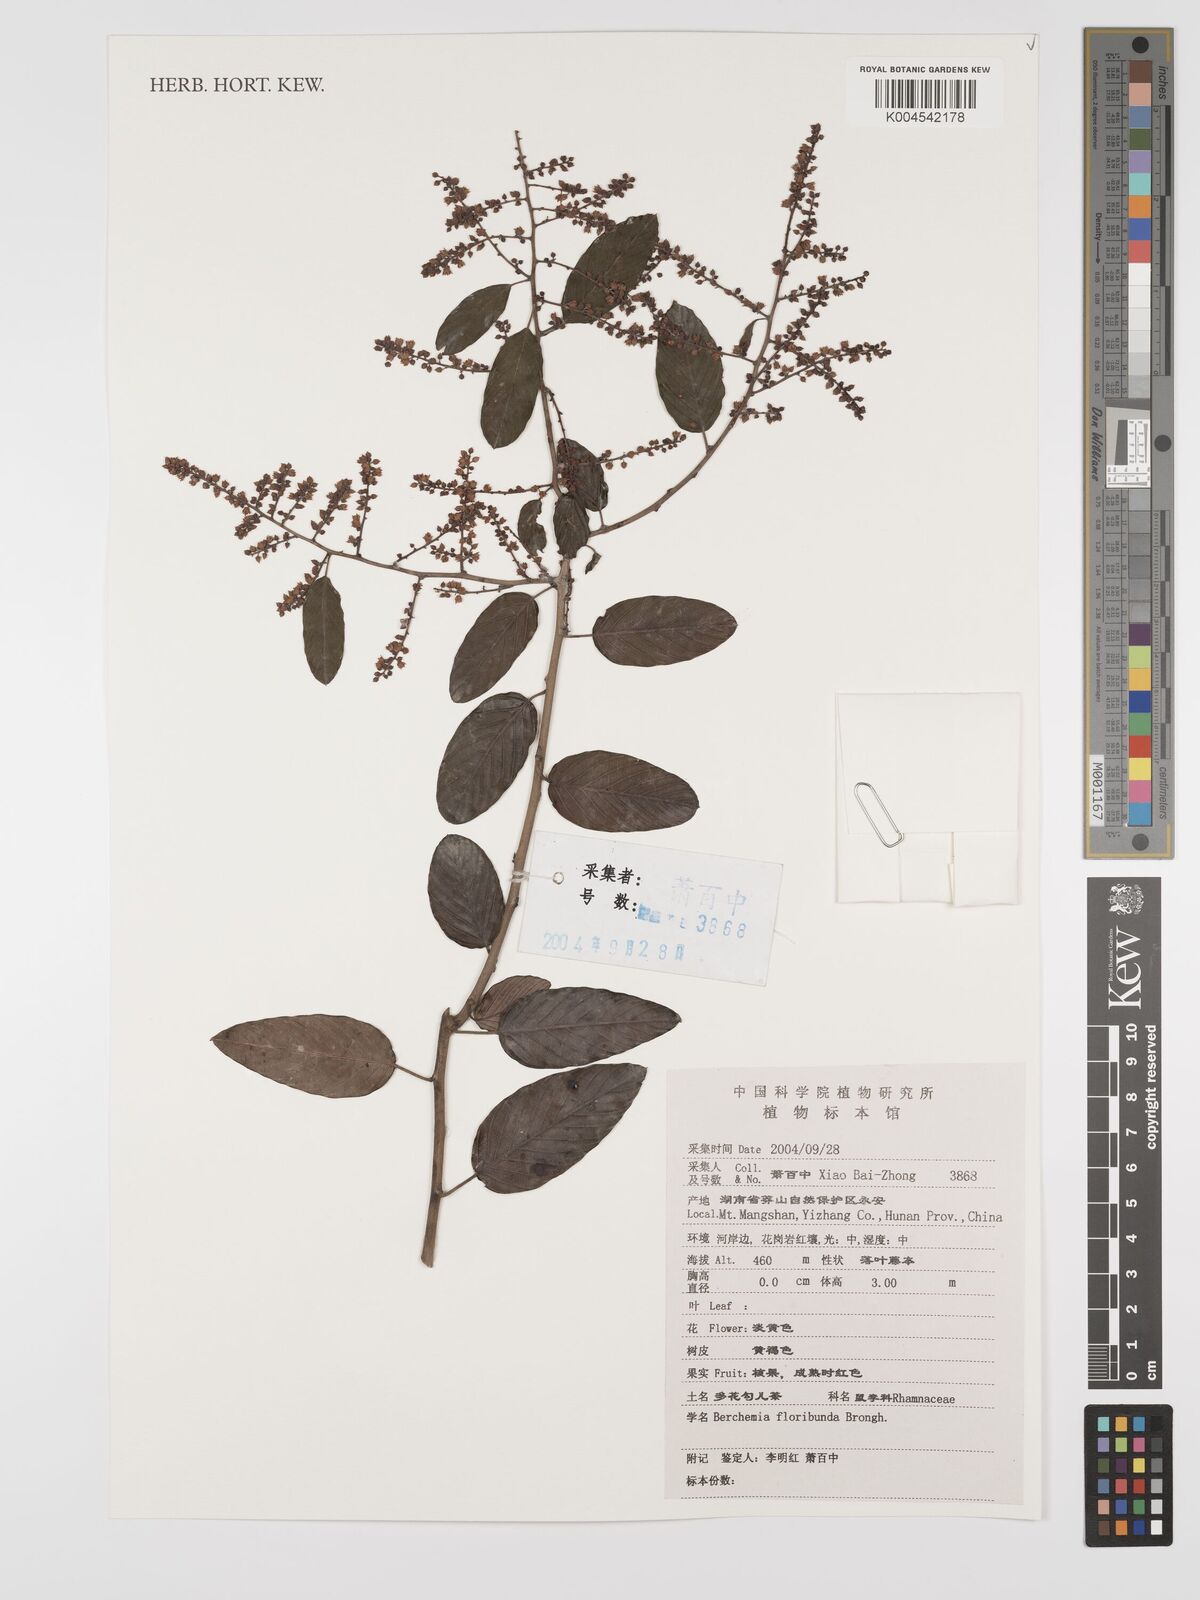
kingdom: Plantae
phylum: Tracheophyta
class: Magnoliopsida
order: Rosales
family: Rhamnaceae
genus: Berchemia
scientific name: Berchemia floribunda
